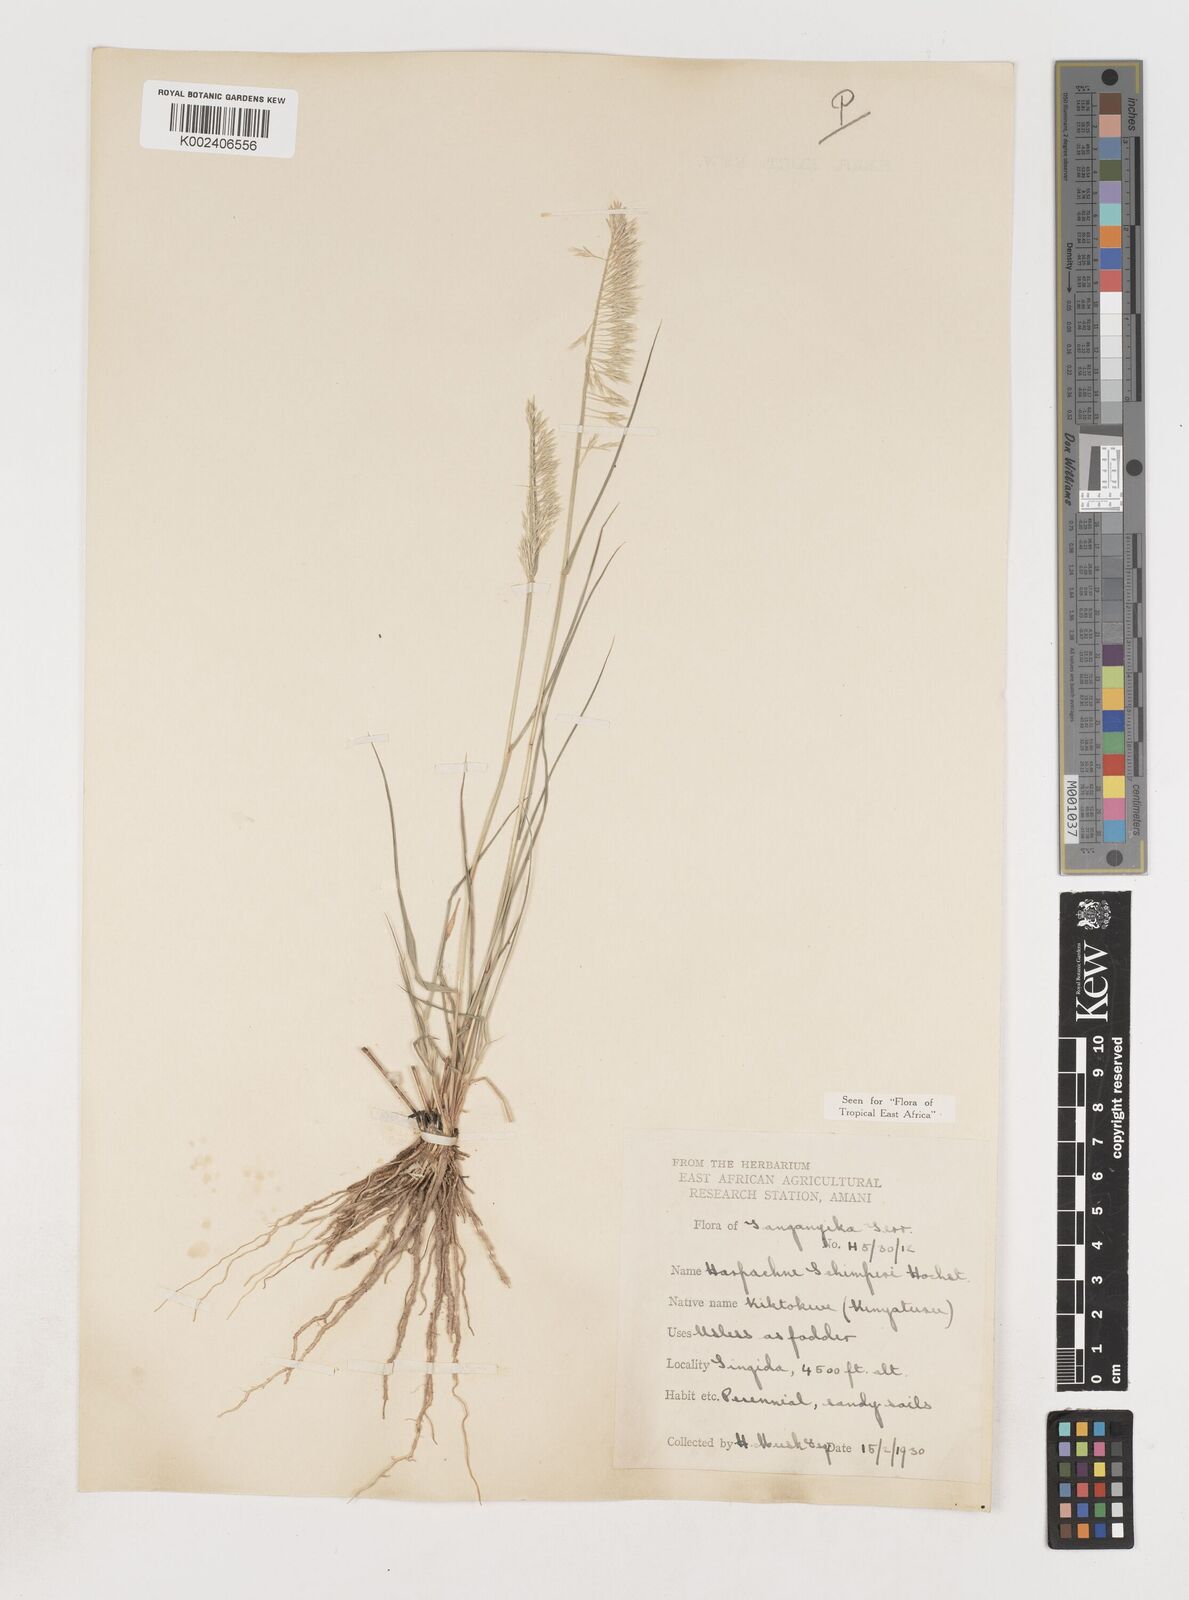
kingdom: Plantae
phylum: Tracheophyta
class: Liliopsida
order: Poales
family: Poaceae
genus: Harpachne
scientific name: Harpachne schimperi
